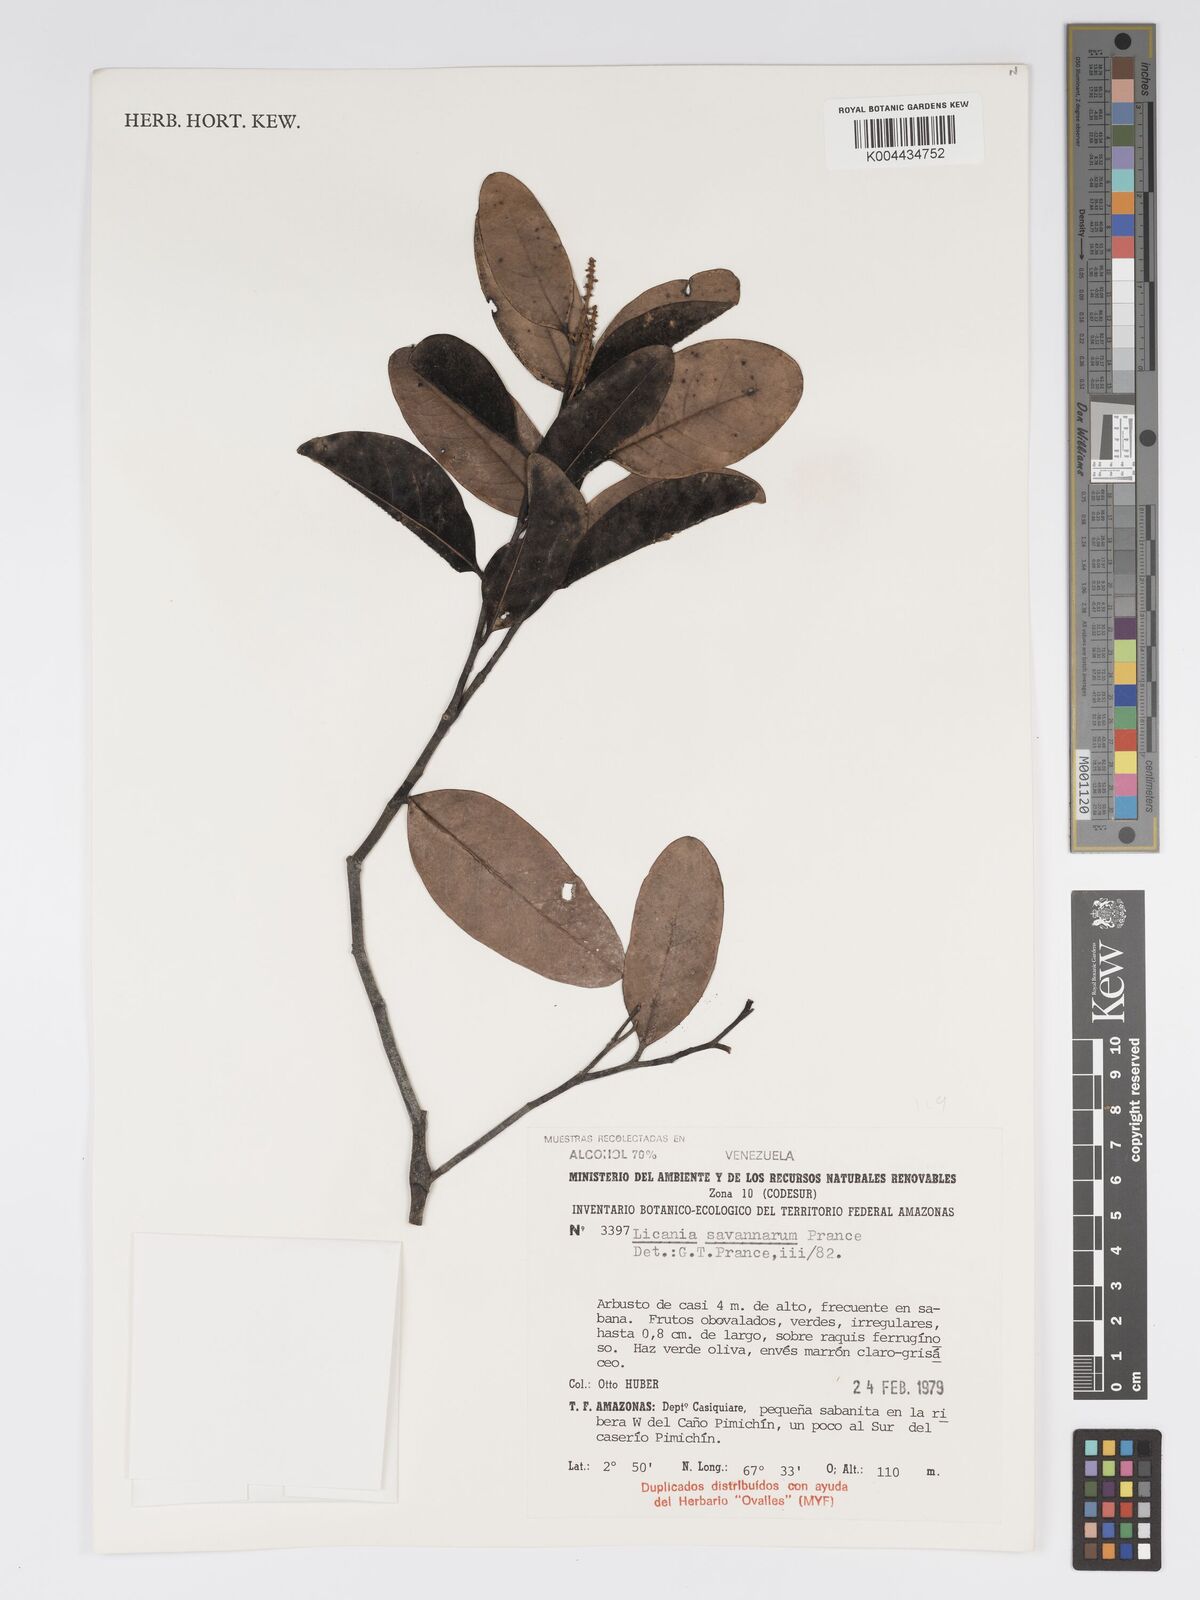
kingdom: Plantae
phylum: Tracheophyta
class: Magnoliopsida
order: Malpighiales
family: Chrysobalanaceae
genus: Licania
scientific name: Licania savannarum
